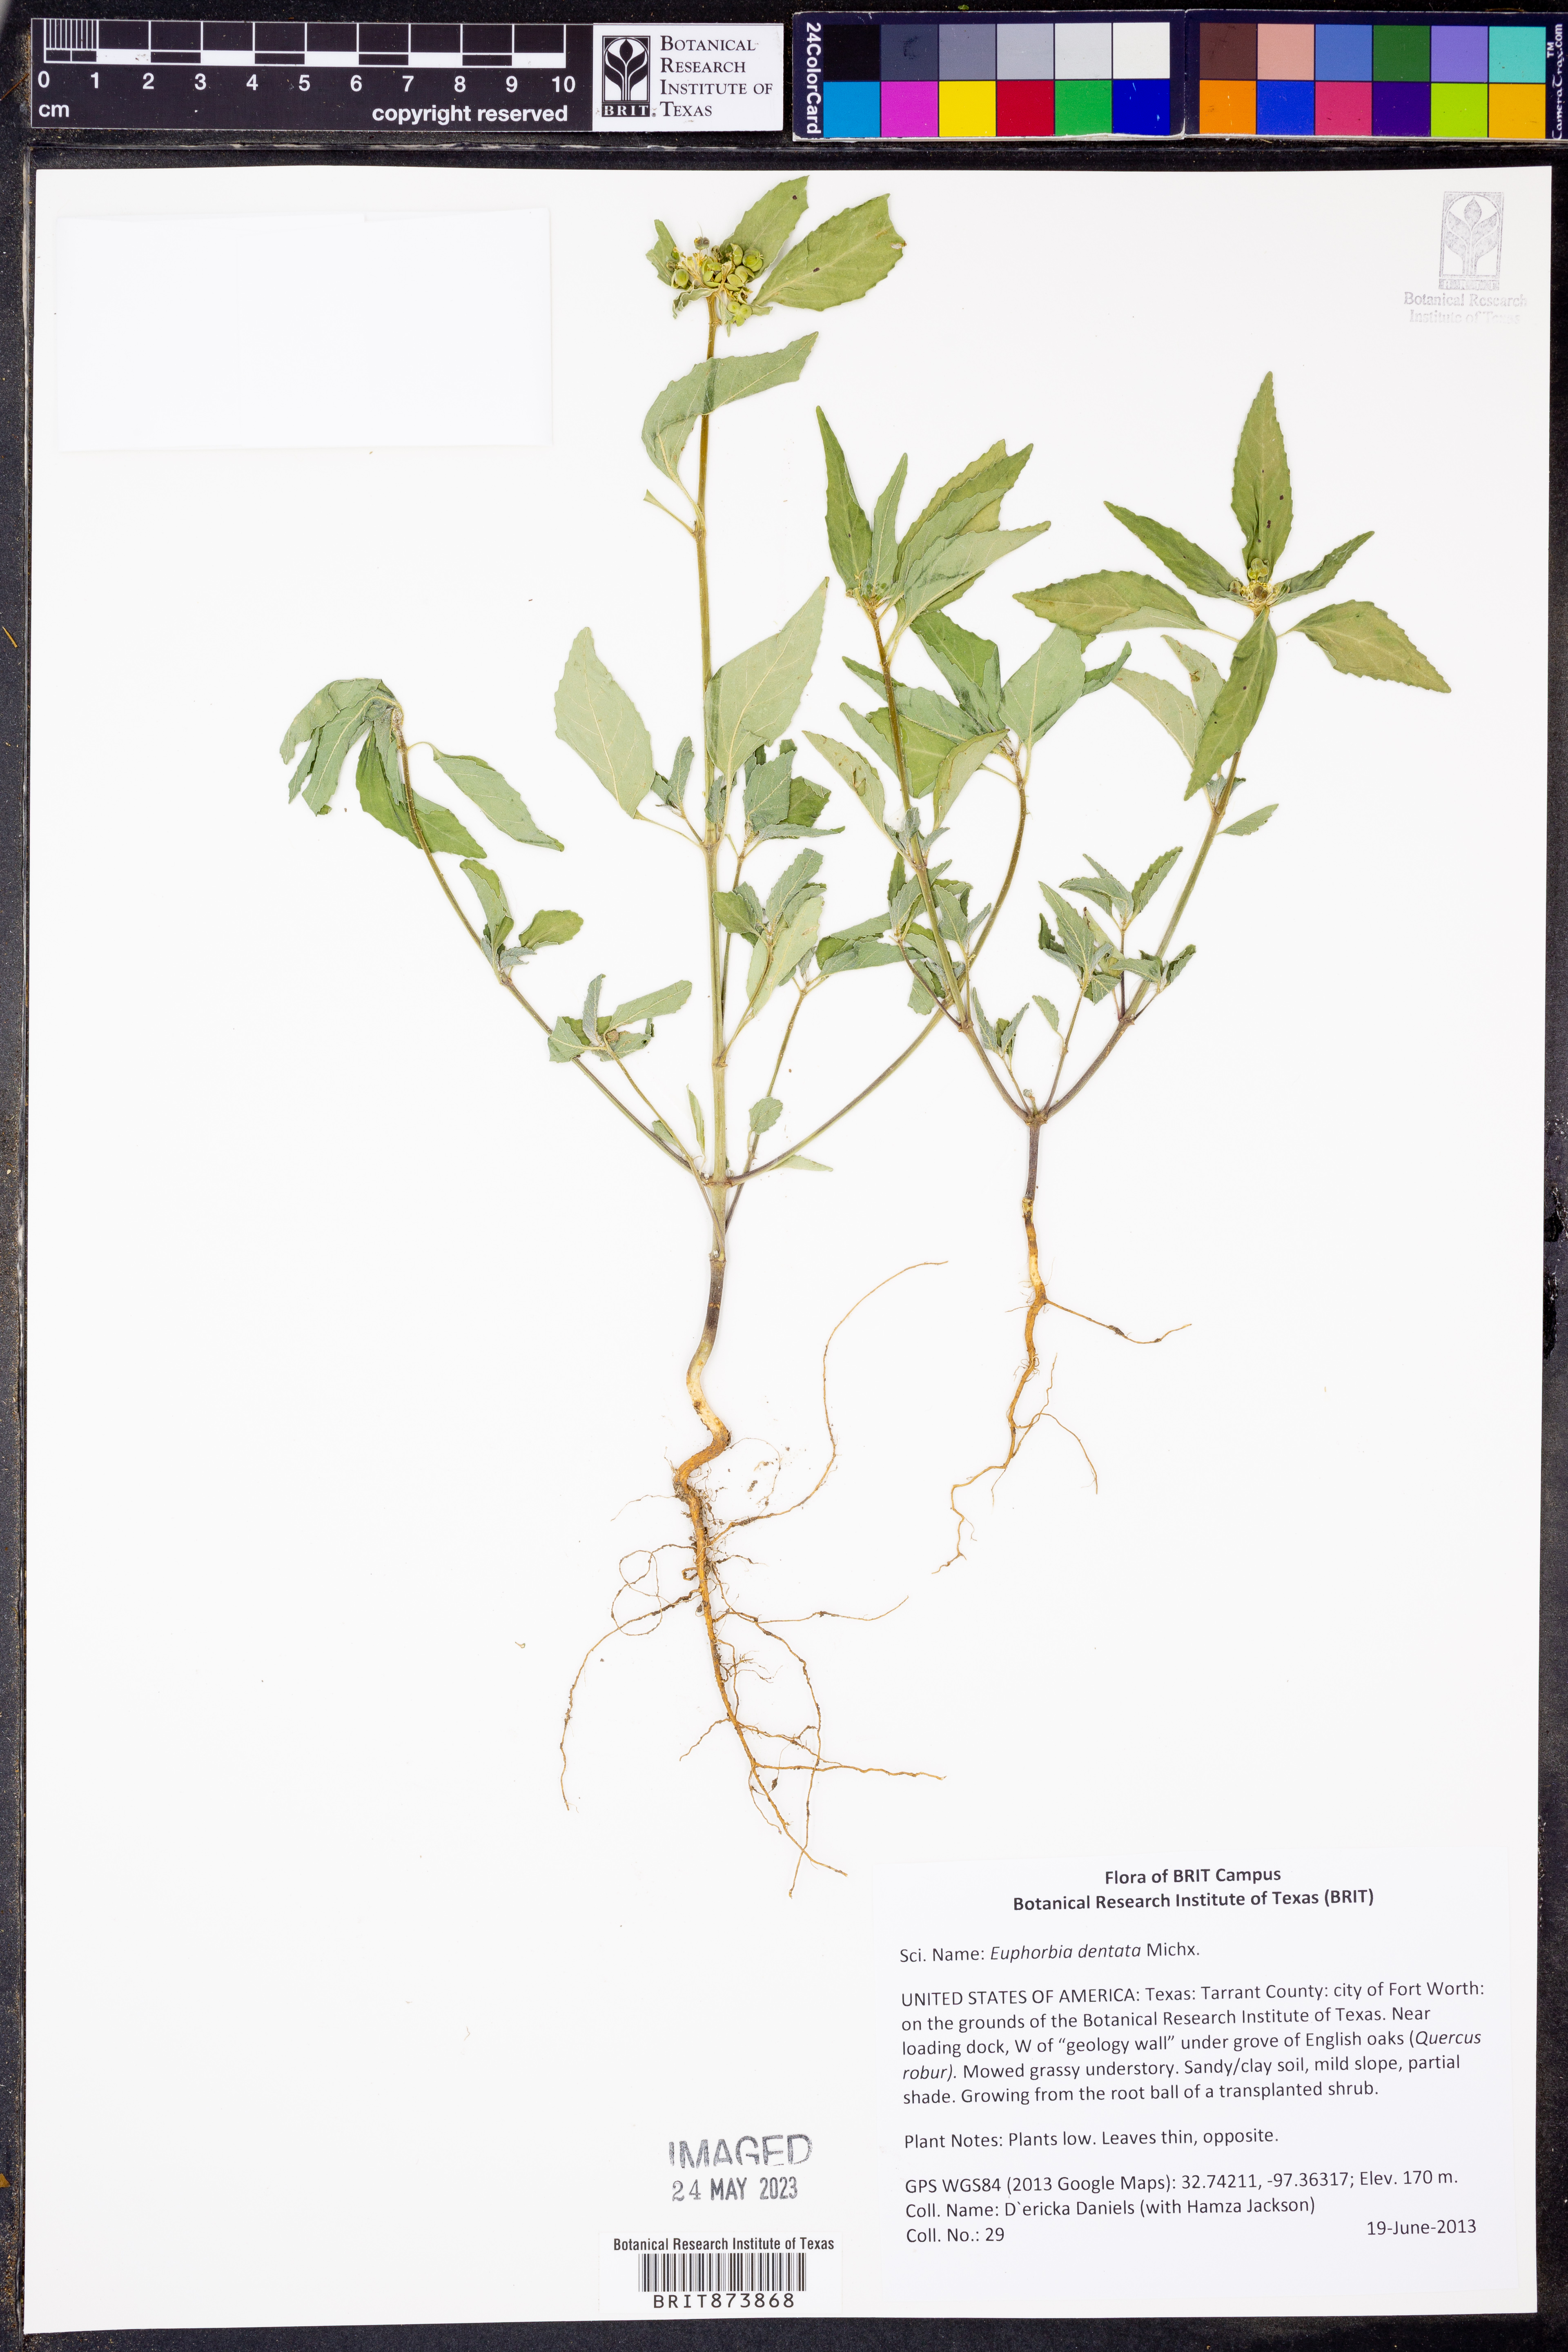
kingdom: Plantae
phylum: Tracheophyta
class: Magnoliopsida
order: Malpighiales
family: Euphorbiaceae
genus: Euphorbia
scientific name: Euphorbia dentata
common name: Dentate spurge
